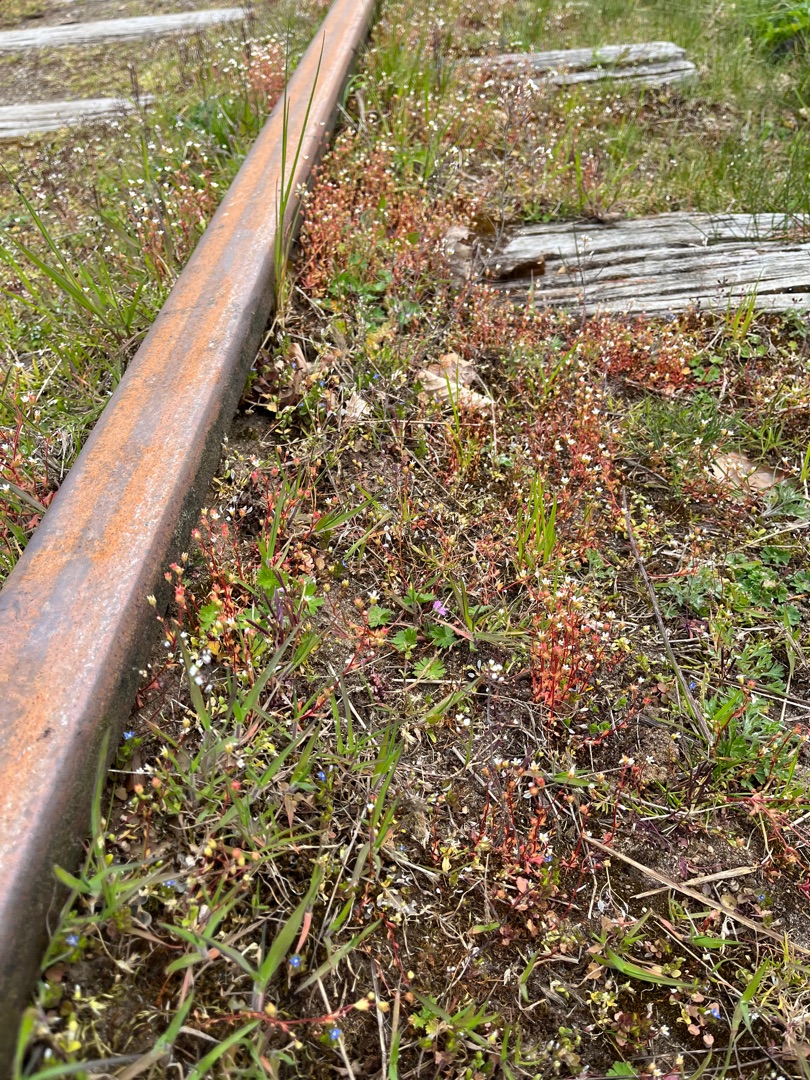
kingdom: Plantae
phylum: Tracheophyta
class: Magnoliopsida
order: Saxifragales
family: Saxifragaceae
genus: Saxifraga
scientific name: Saxifraga tridactylites
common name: Trekløft-stenbræk
